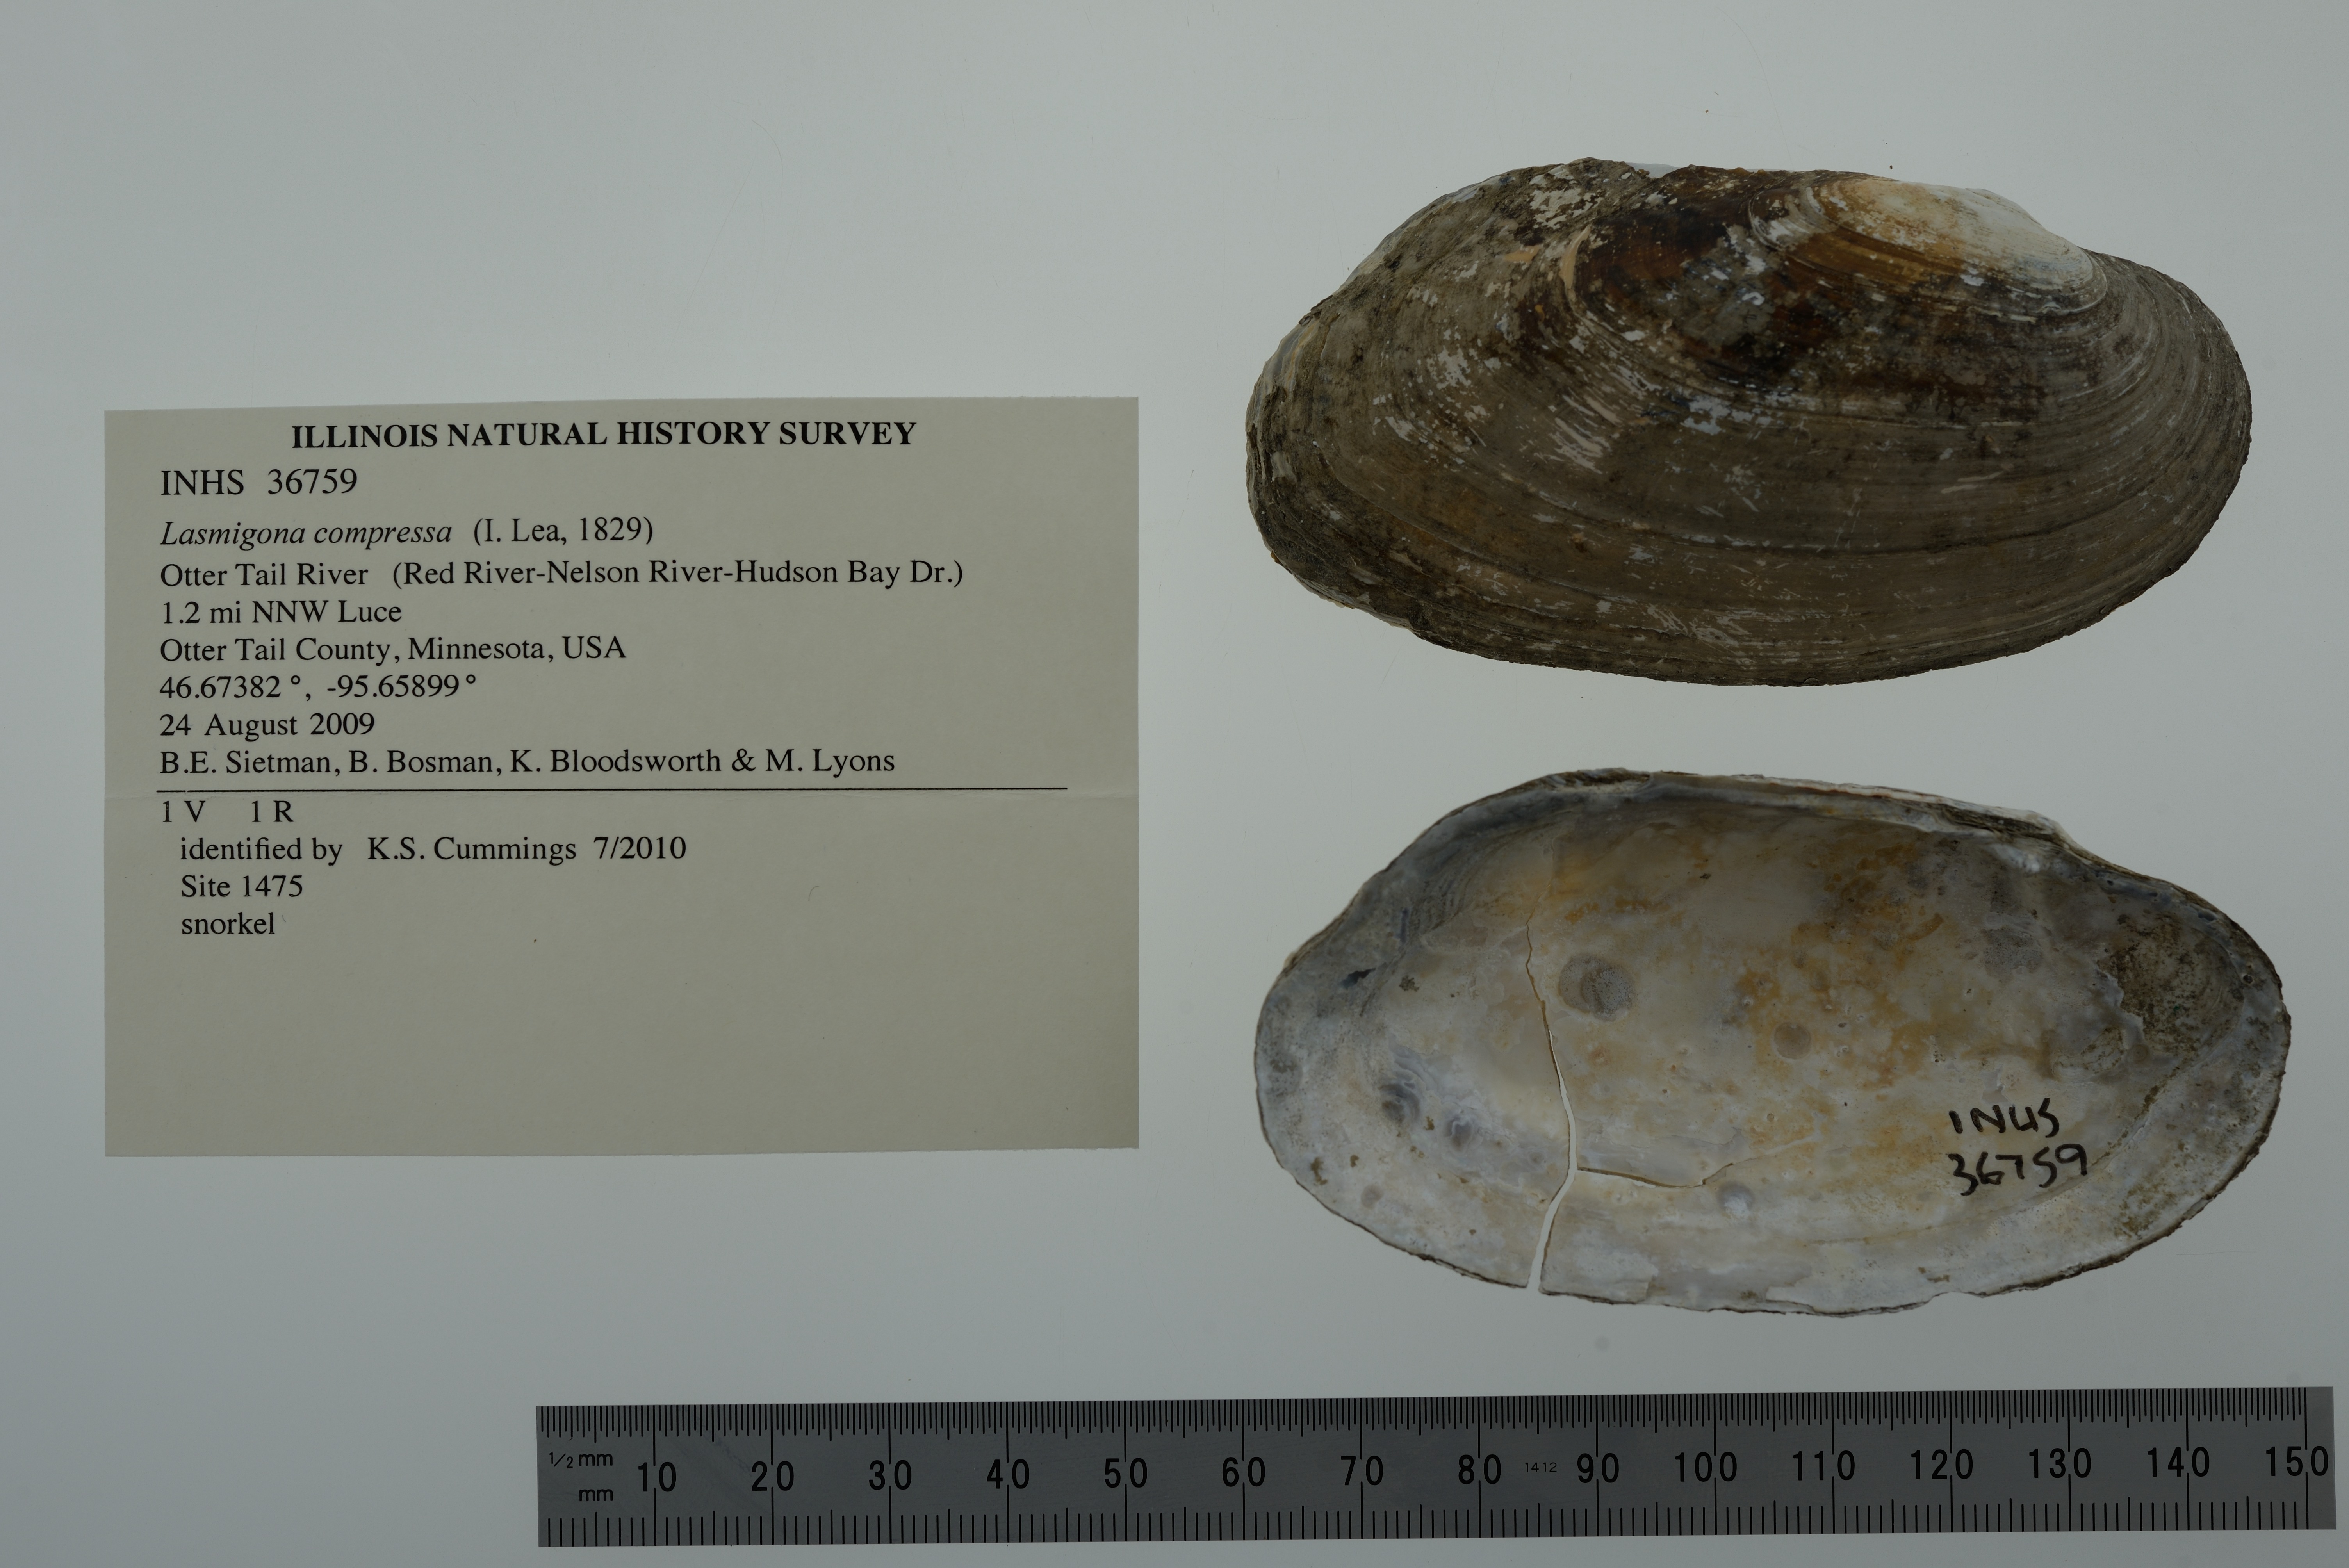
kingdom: Animalia
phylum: Mollusca
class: Bivalvia
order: Unionida
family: Unionidae
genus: Lasmigona
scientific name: Lasmigona compressa
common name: Creek heelsplitter
